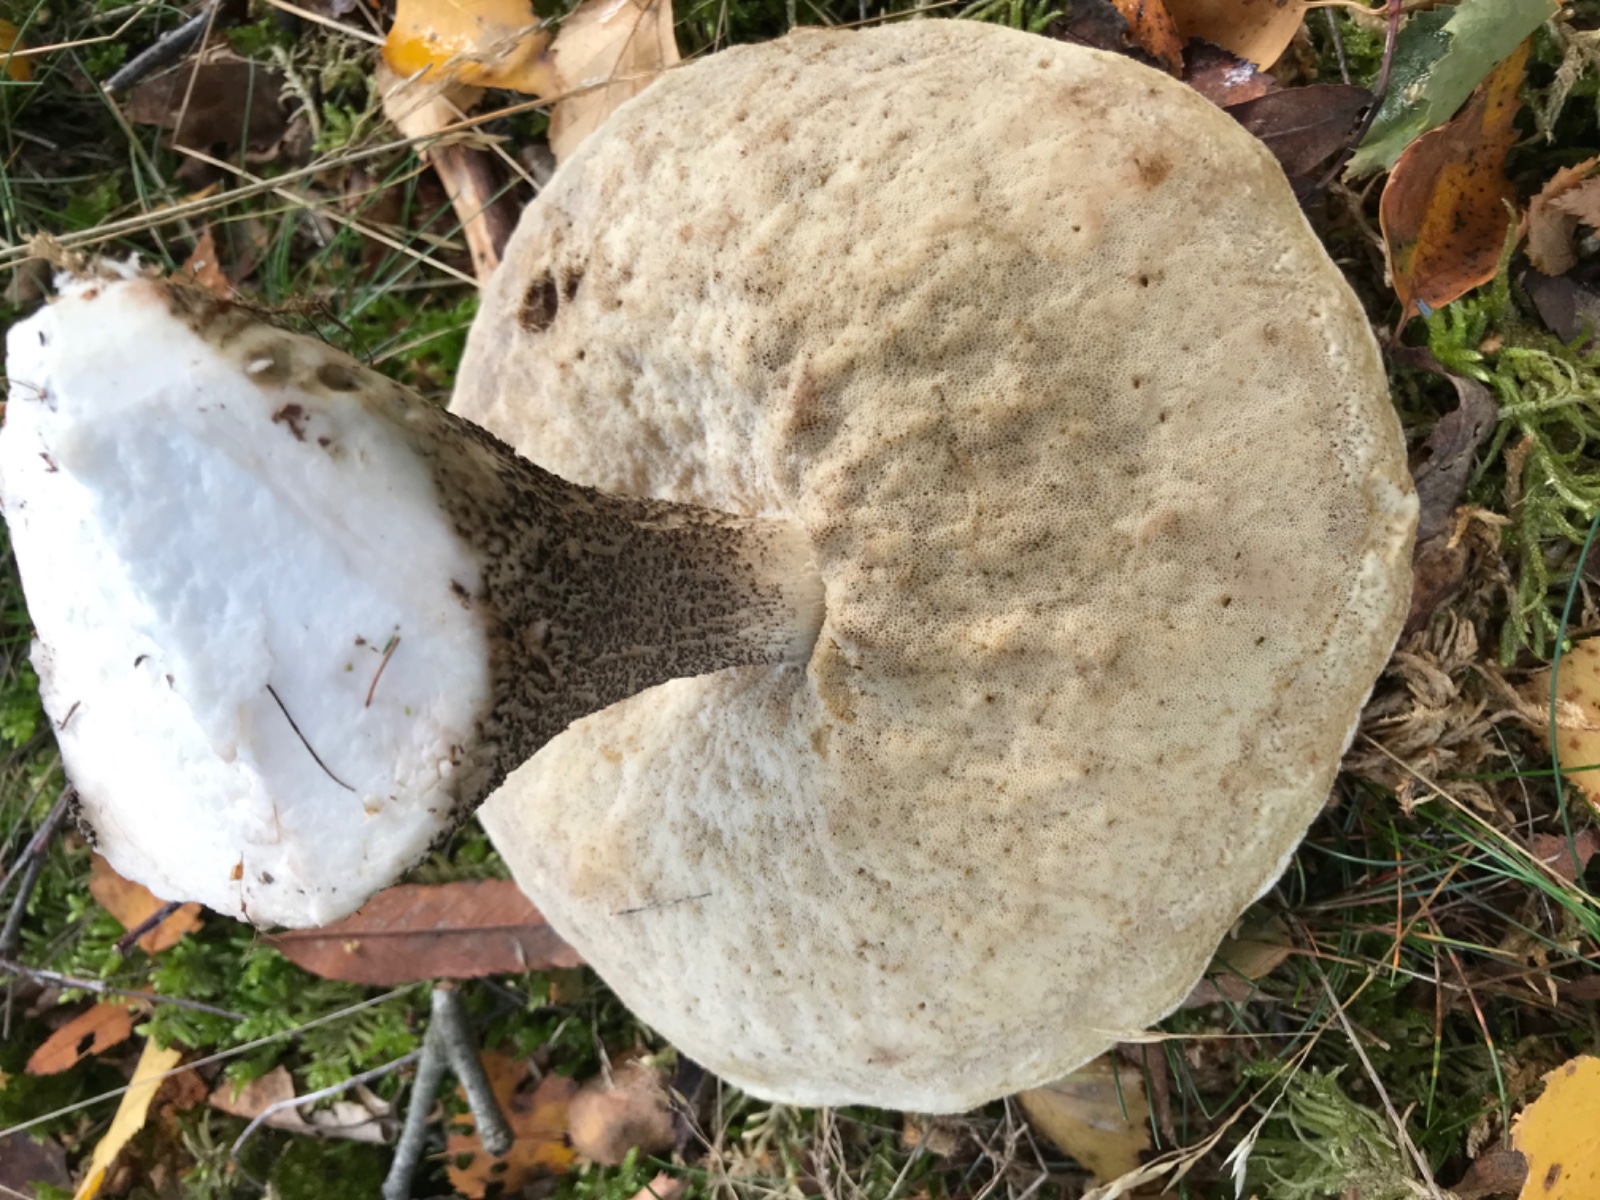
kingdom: Fungi
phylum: Basidiomycota
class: Agaricomycetes
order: Boletales
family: Boletaceae
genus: Leccinum
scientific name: Leccinum versipelle
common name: orange skælrørhat
